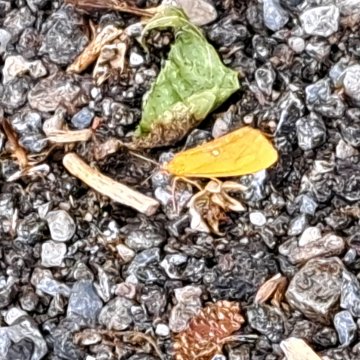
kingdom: Animalia
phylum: Arthropoda
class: Insecta
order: Lepidoptera
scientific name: Lepidoptera
